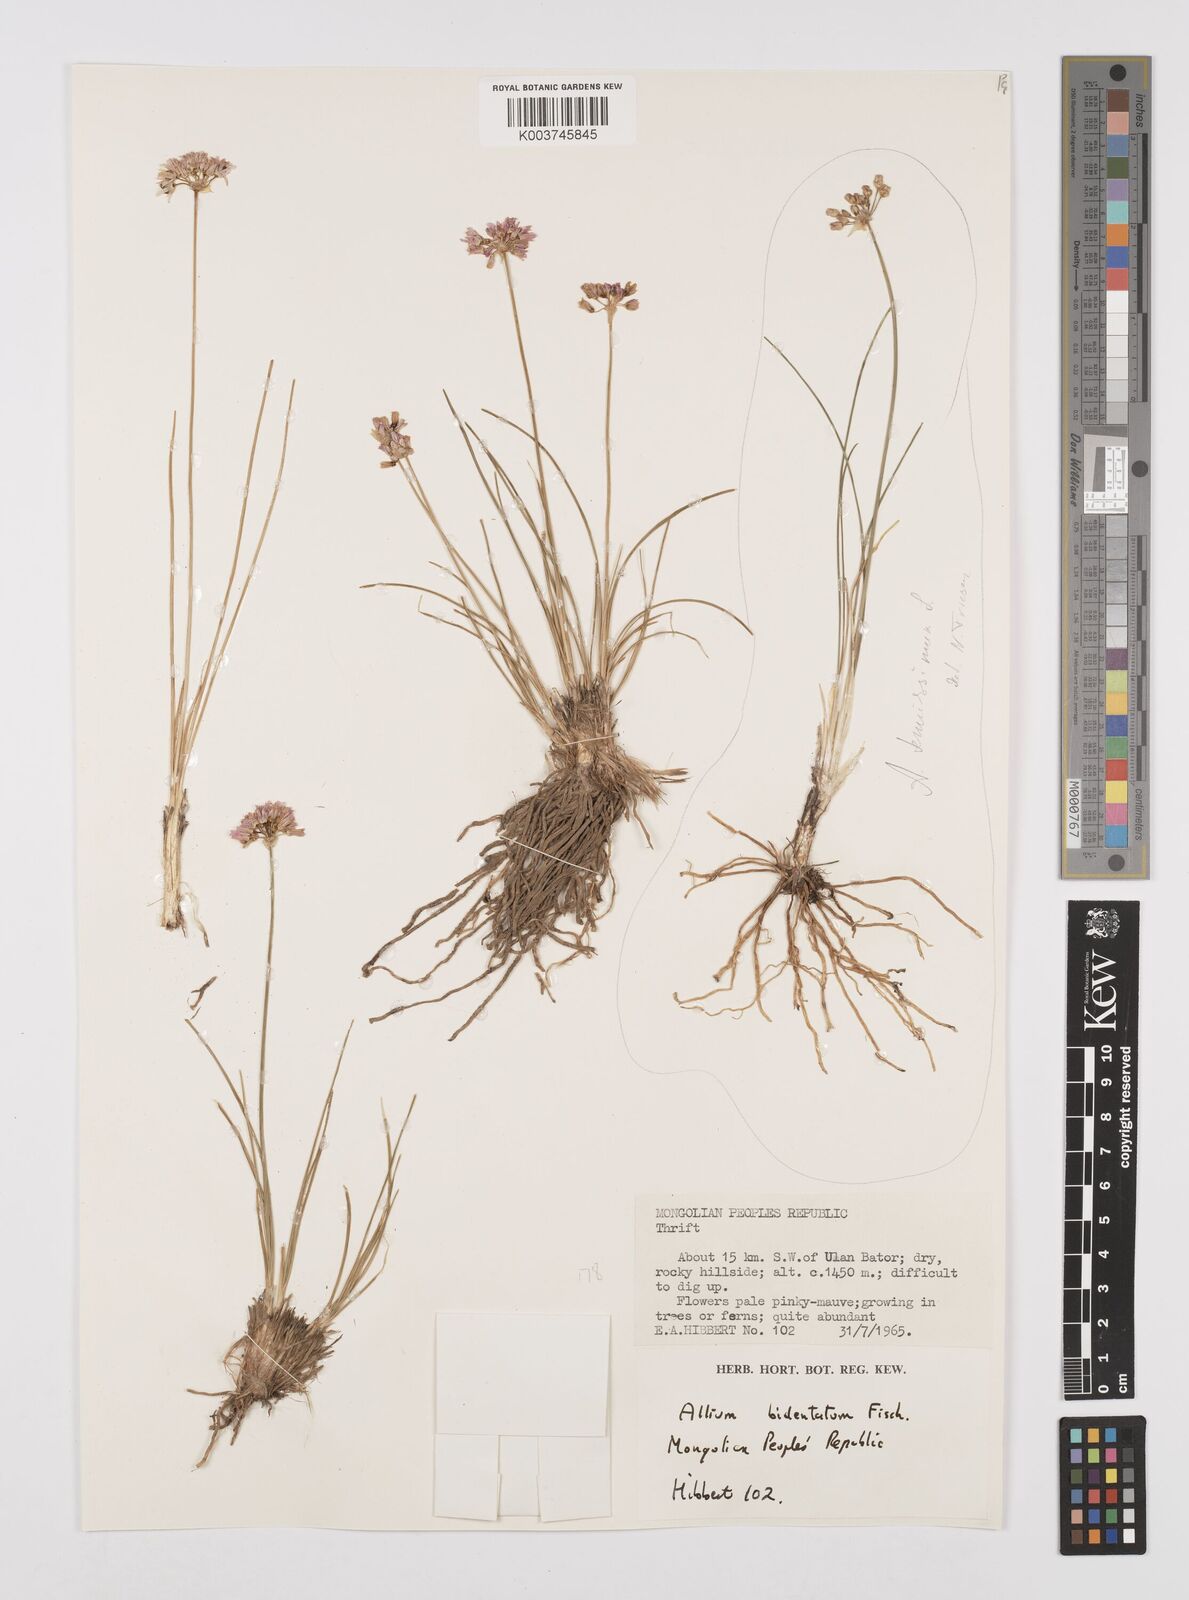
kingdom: Plantae
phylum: Tracheophyta
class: Liliopsida
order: Asparagales
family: Amaryllidaceae
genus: Allium
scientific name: Allium bidentatum
